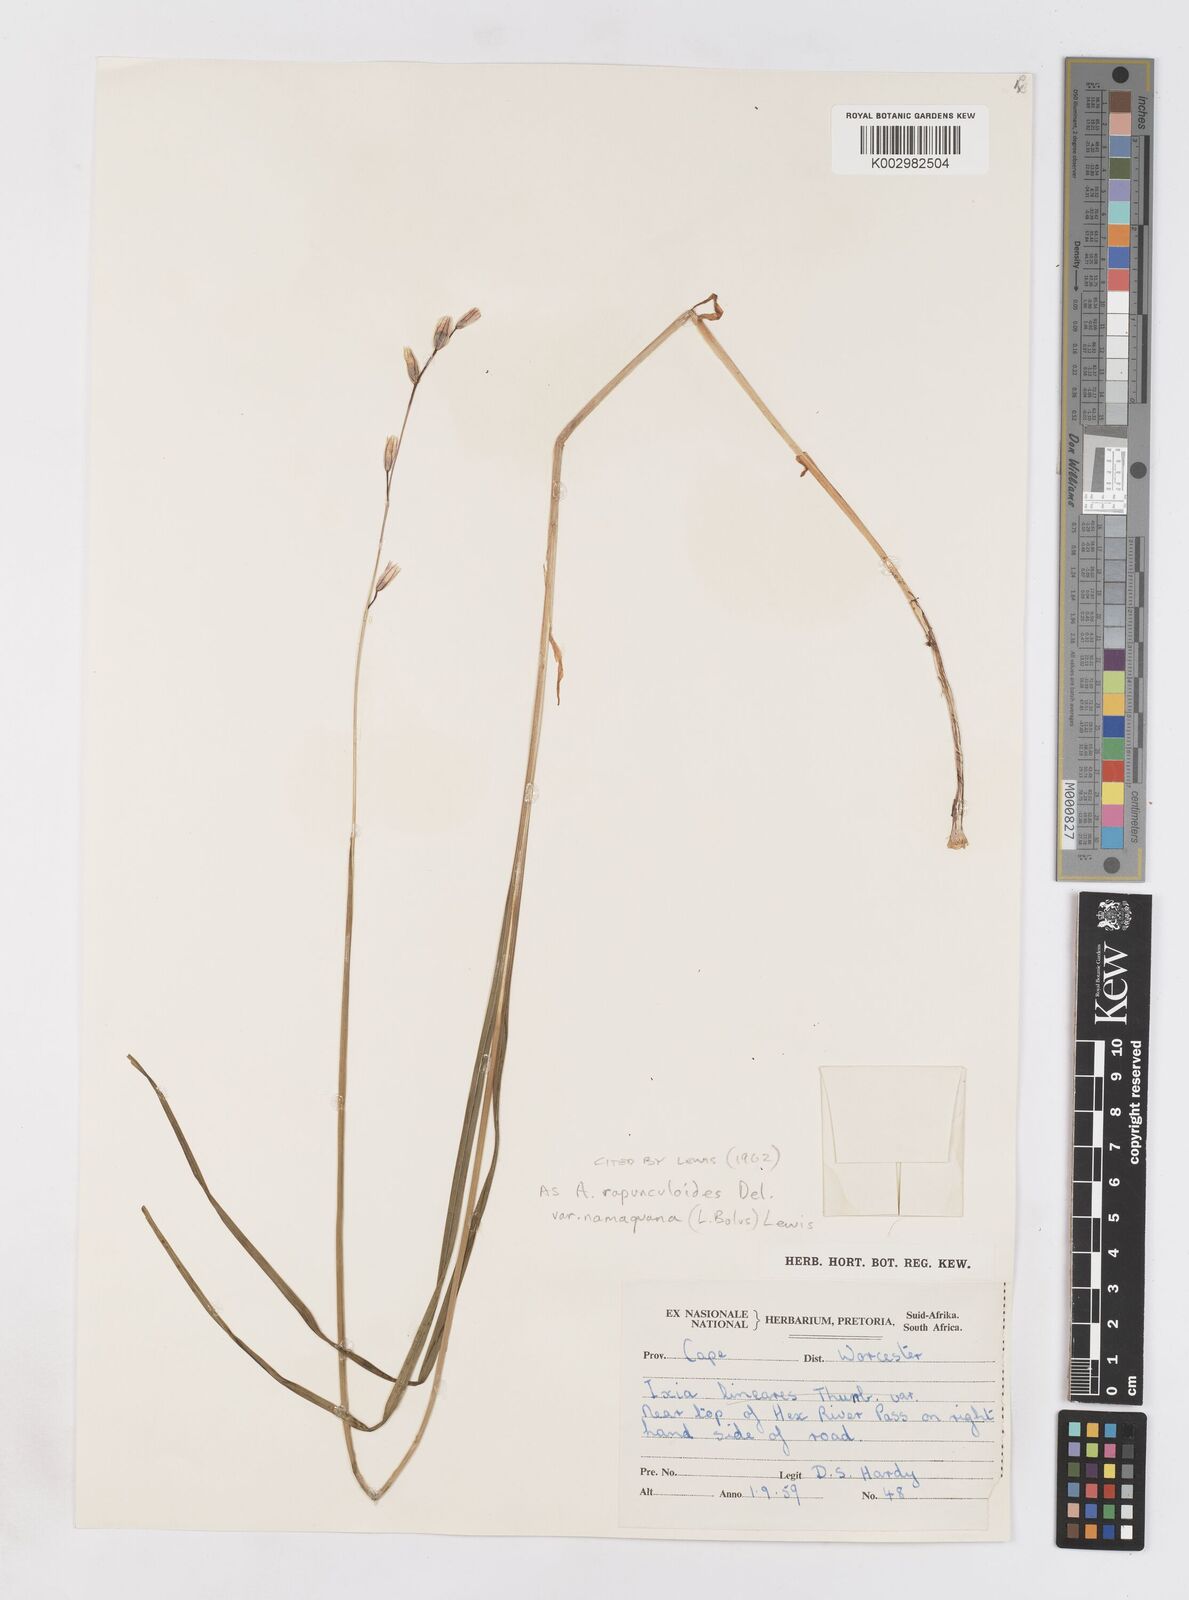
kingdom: Plantae
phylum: Tracheophyta
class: Liliopsida
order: Asparagales
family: Iridaceae
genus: Ixia
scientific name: Ixia rapunculoides
